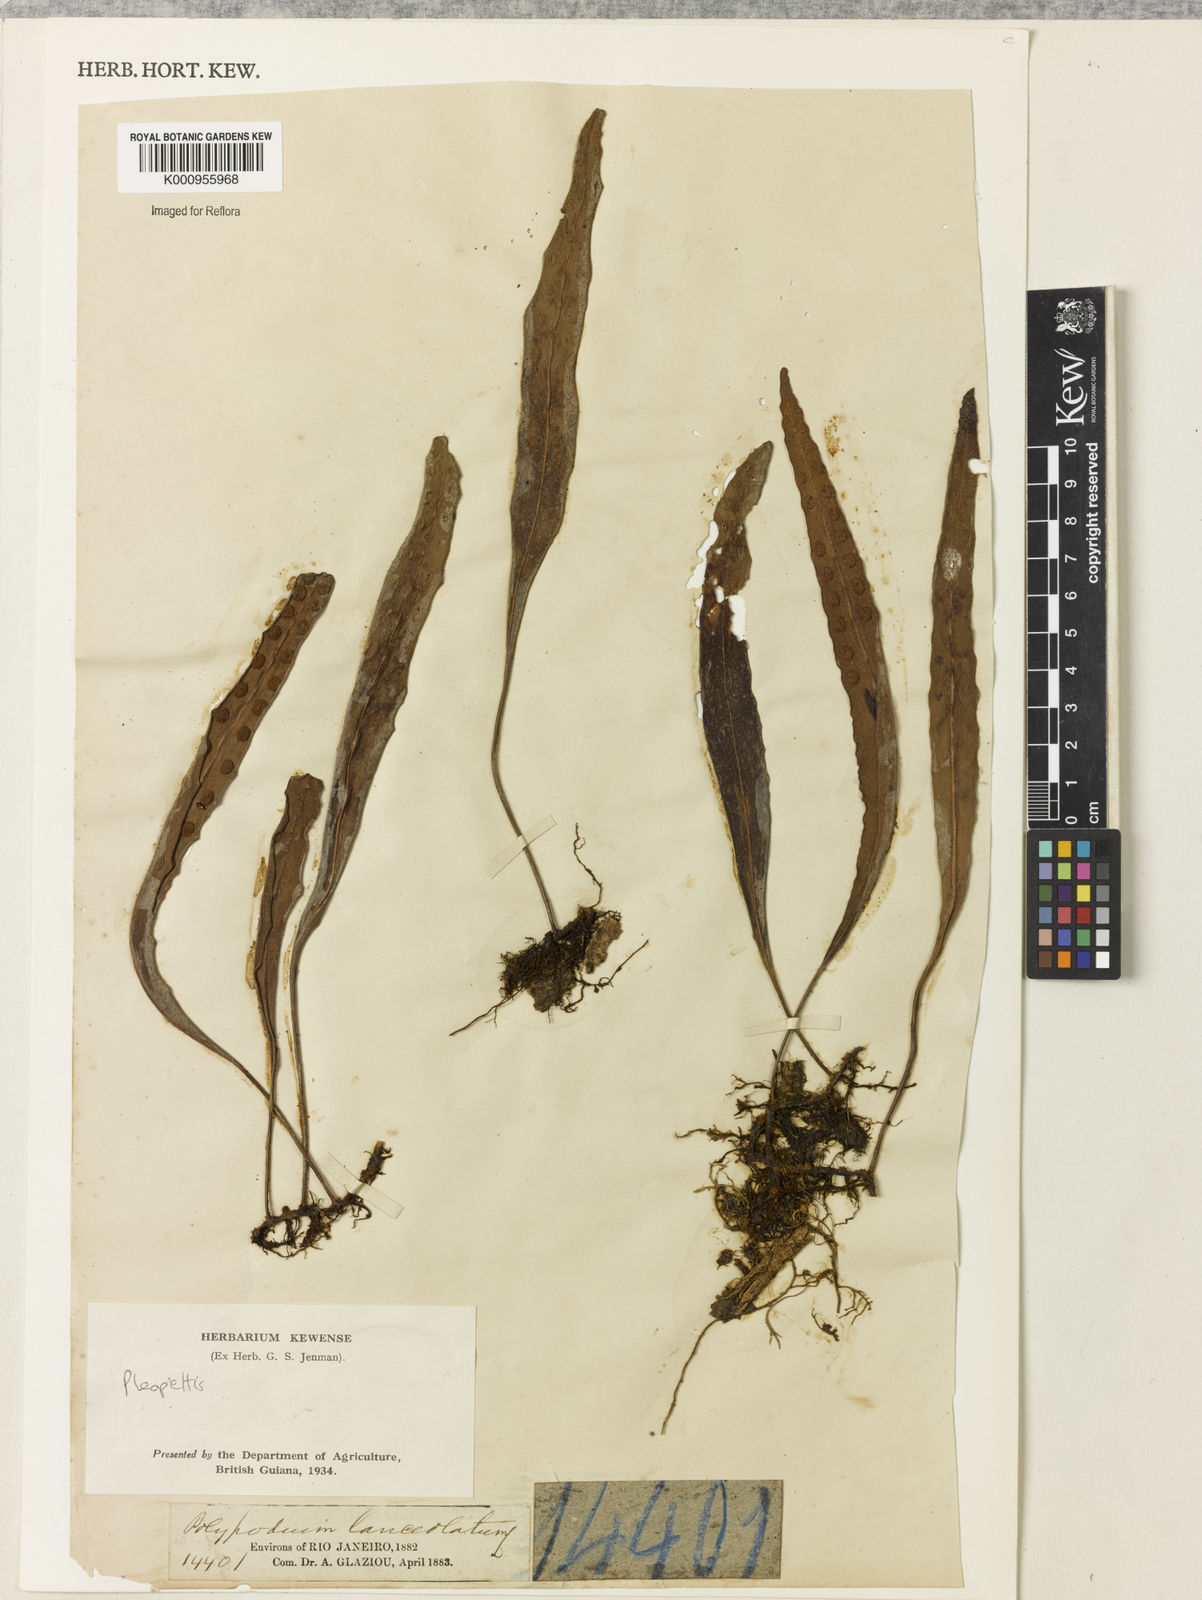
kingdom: Plantae
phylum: Tracheophyta
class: Polypodiopsida
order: Polypodiales
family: Polypodiaceae
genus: Pleopeltis
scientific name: Pleopeltis
